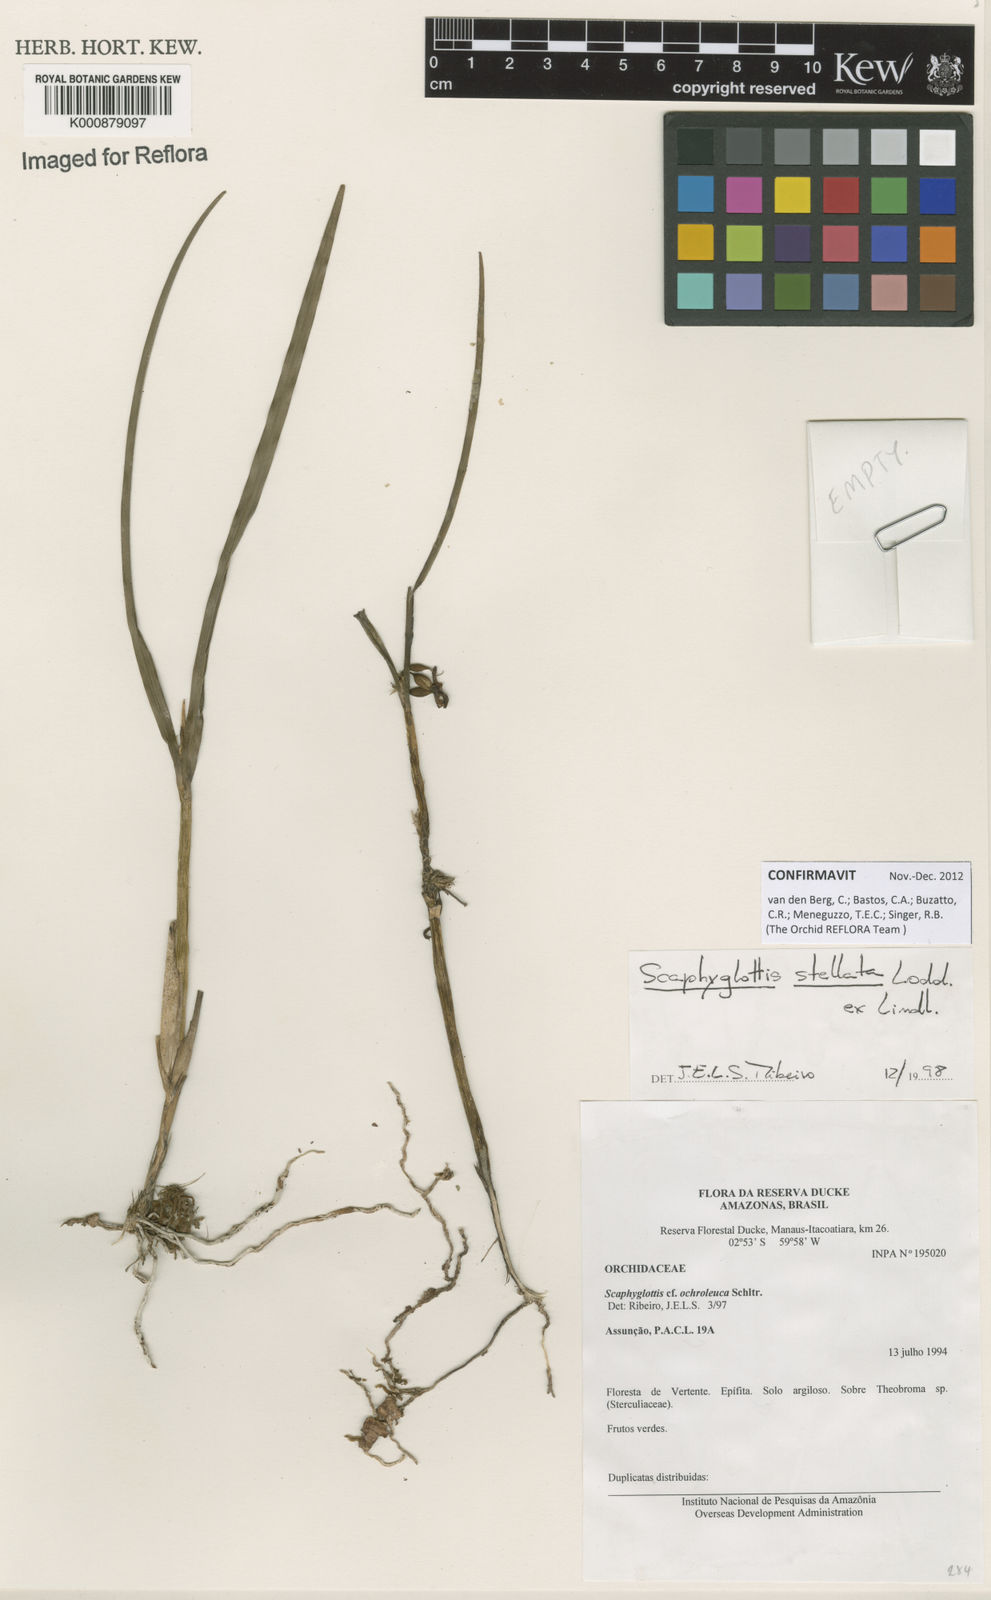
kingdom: Plantae
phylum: Tracheophyta
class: Liliopsida
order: Asparagales
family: Orchidaceae
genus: Scaphyglottis
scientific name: Scaphyglottis stellata
